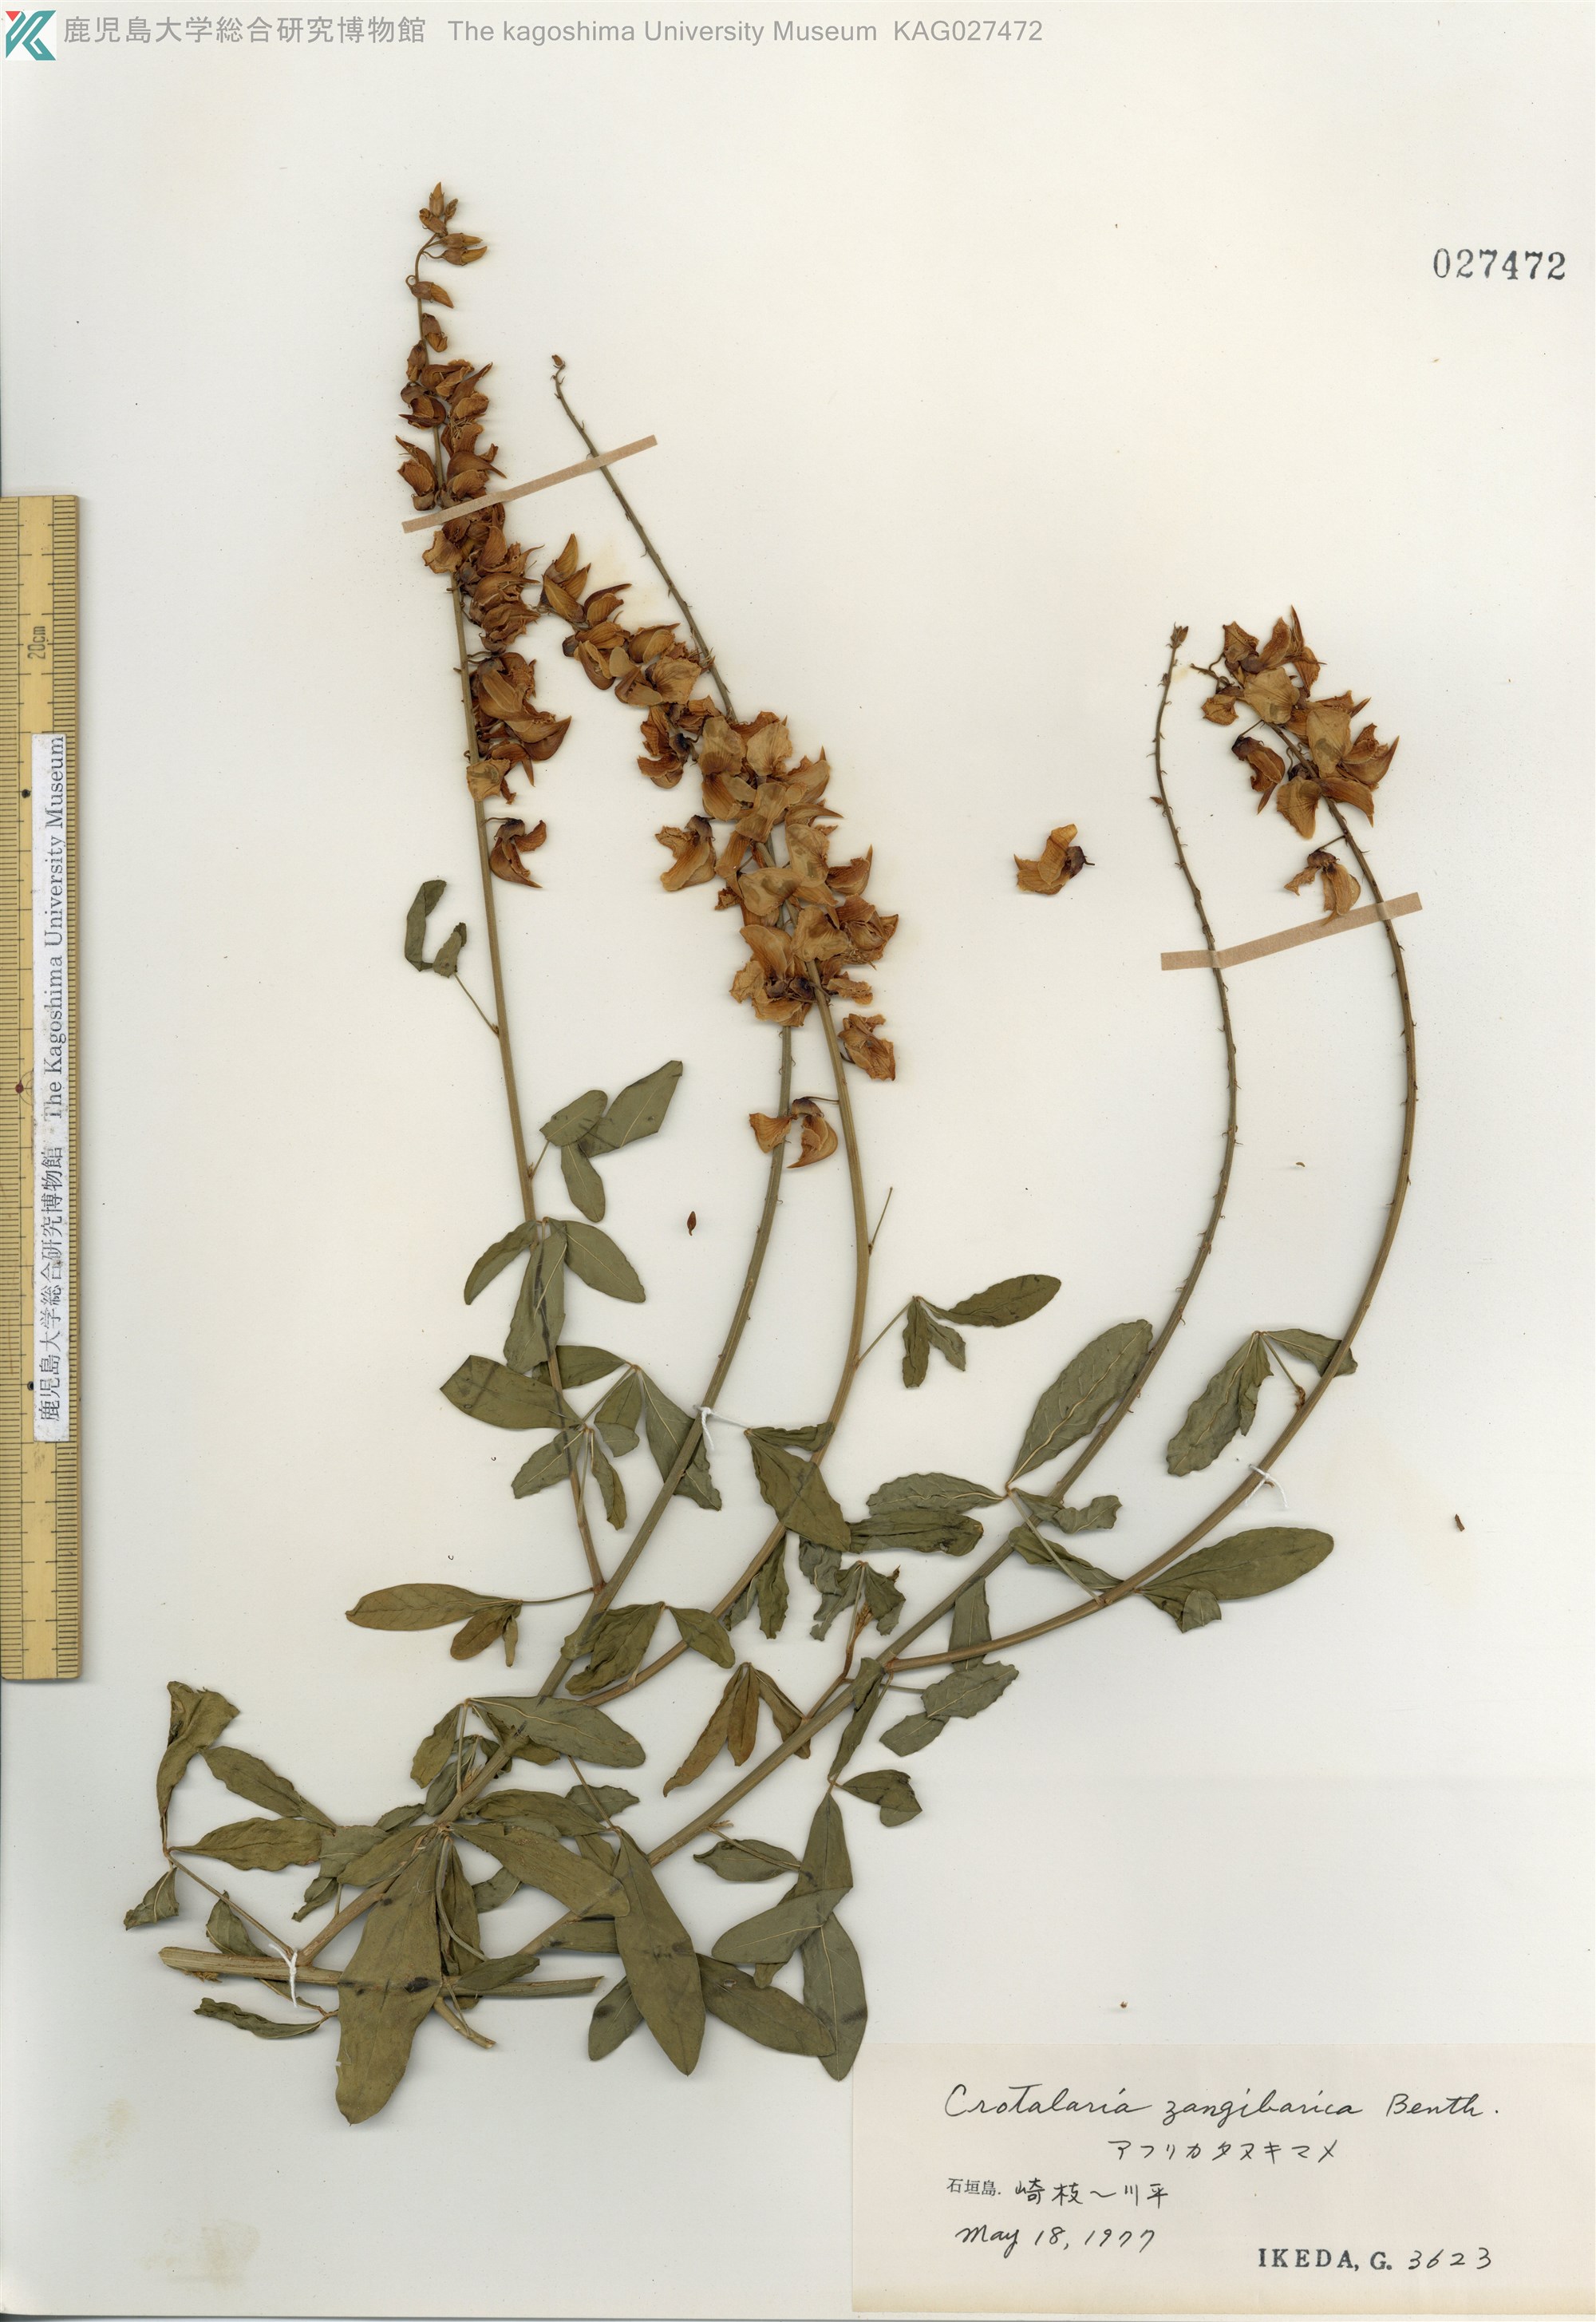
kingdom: Plantae
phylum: Tracheophyta
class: Magnoliopsida
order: Fabales
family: Fabaceae
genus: Crotalaria
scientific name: Crotalaria trichotoma
